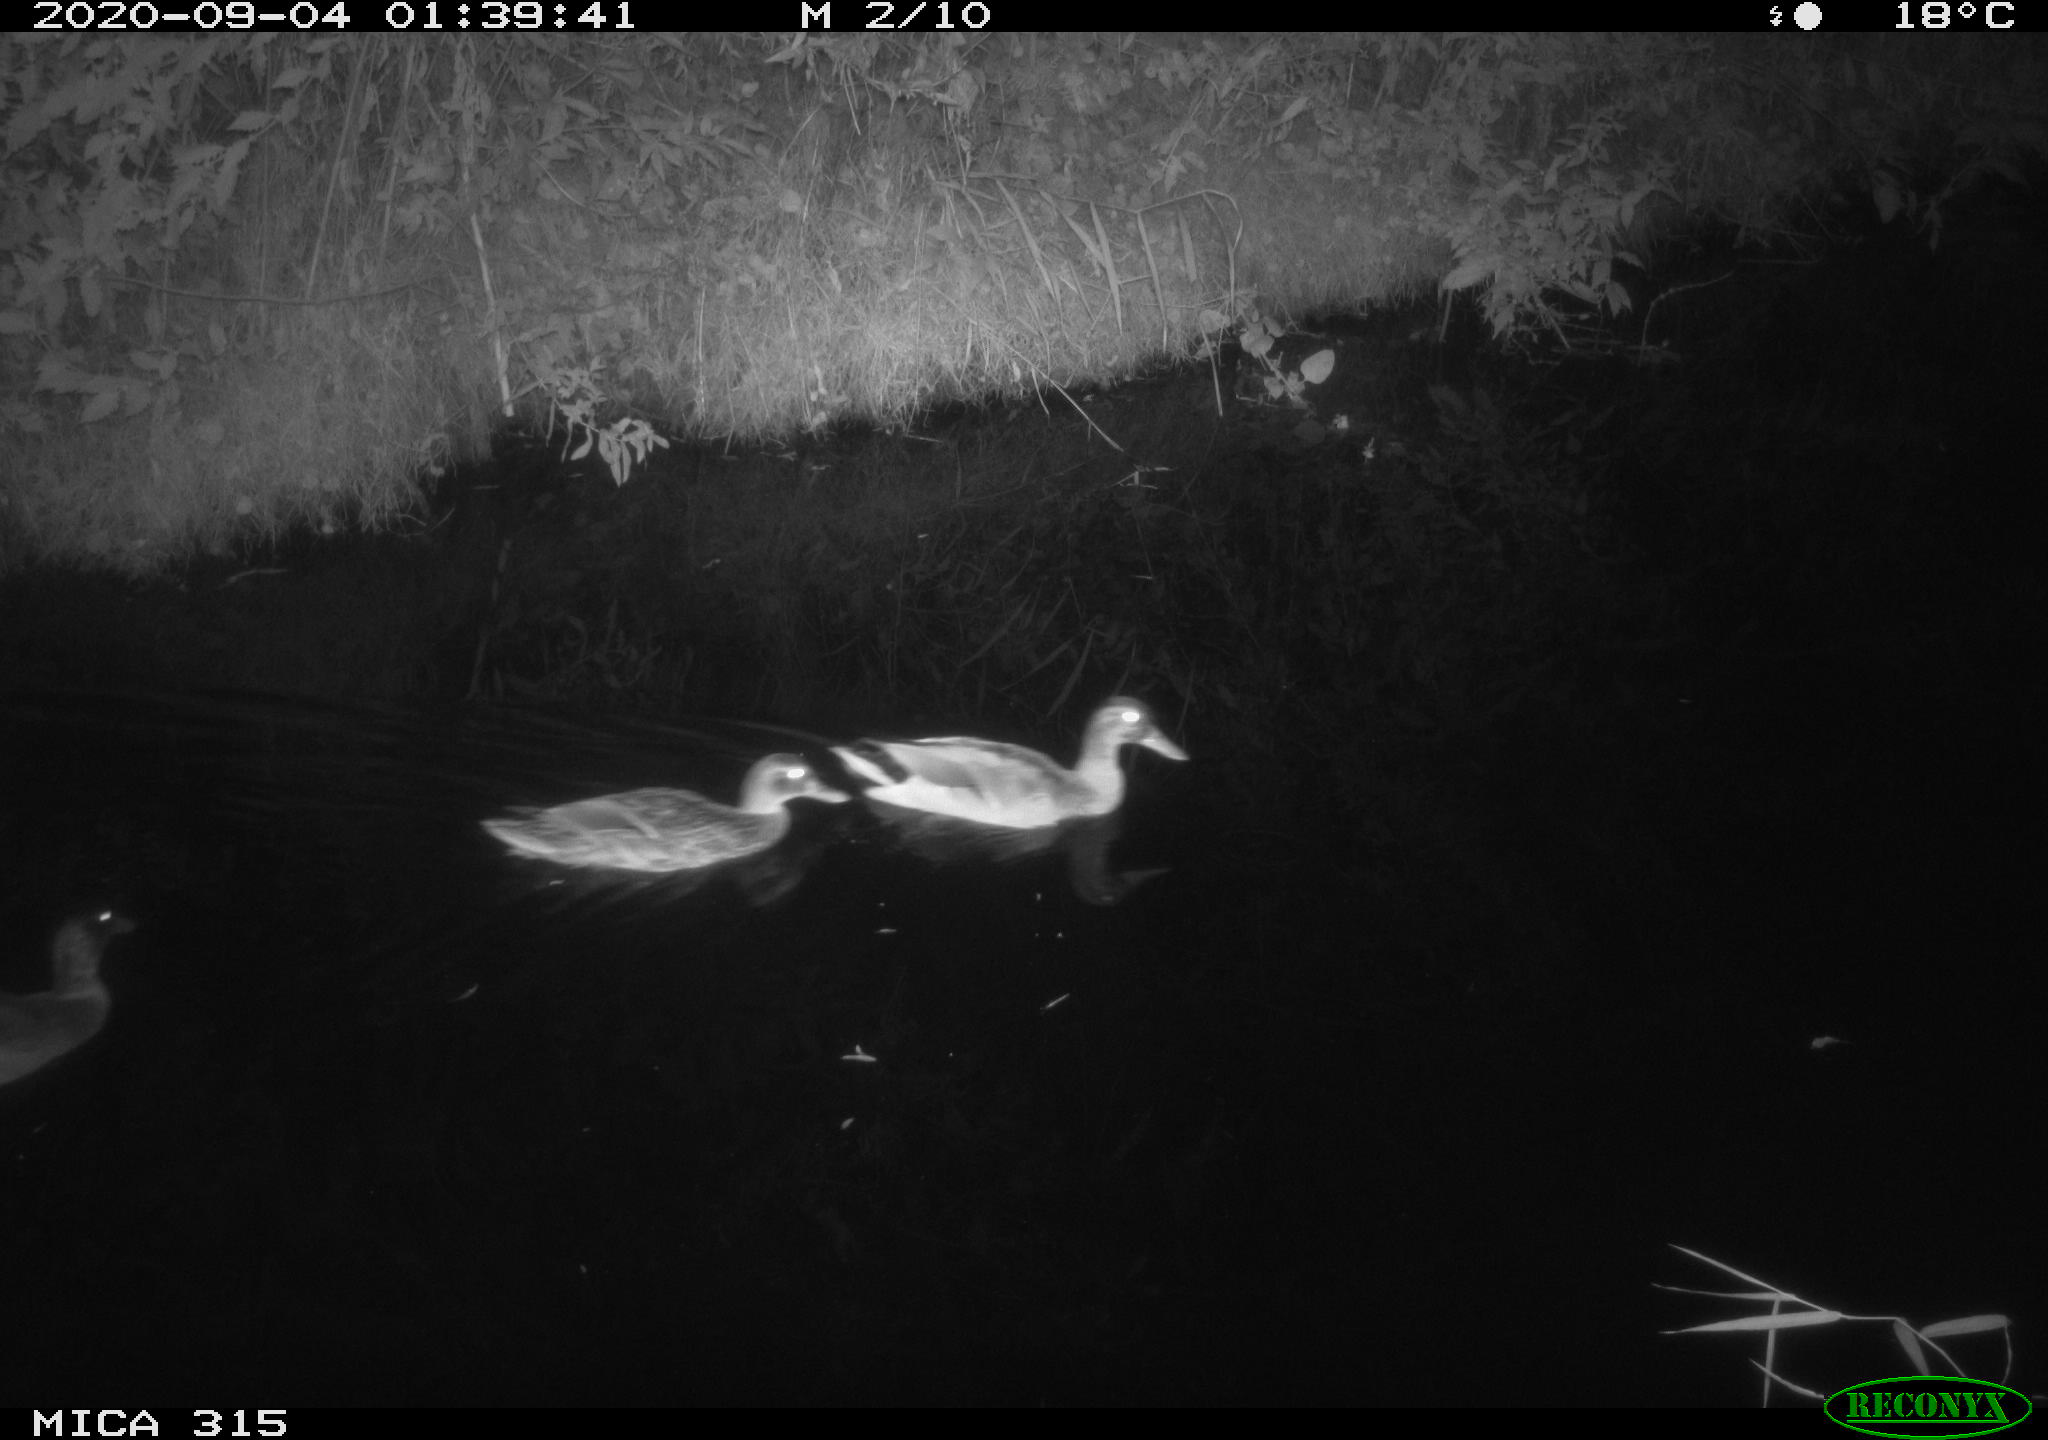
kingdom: Animalia
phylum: Chordata
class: Aves
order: Anseriformes
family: Anatidae
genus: Anas
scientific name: Anas platyrhynchos
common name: Mallard
